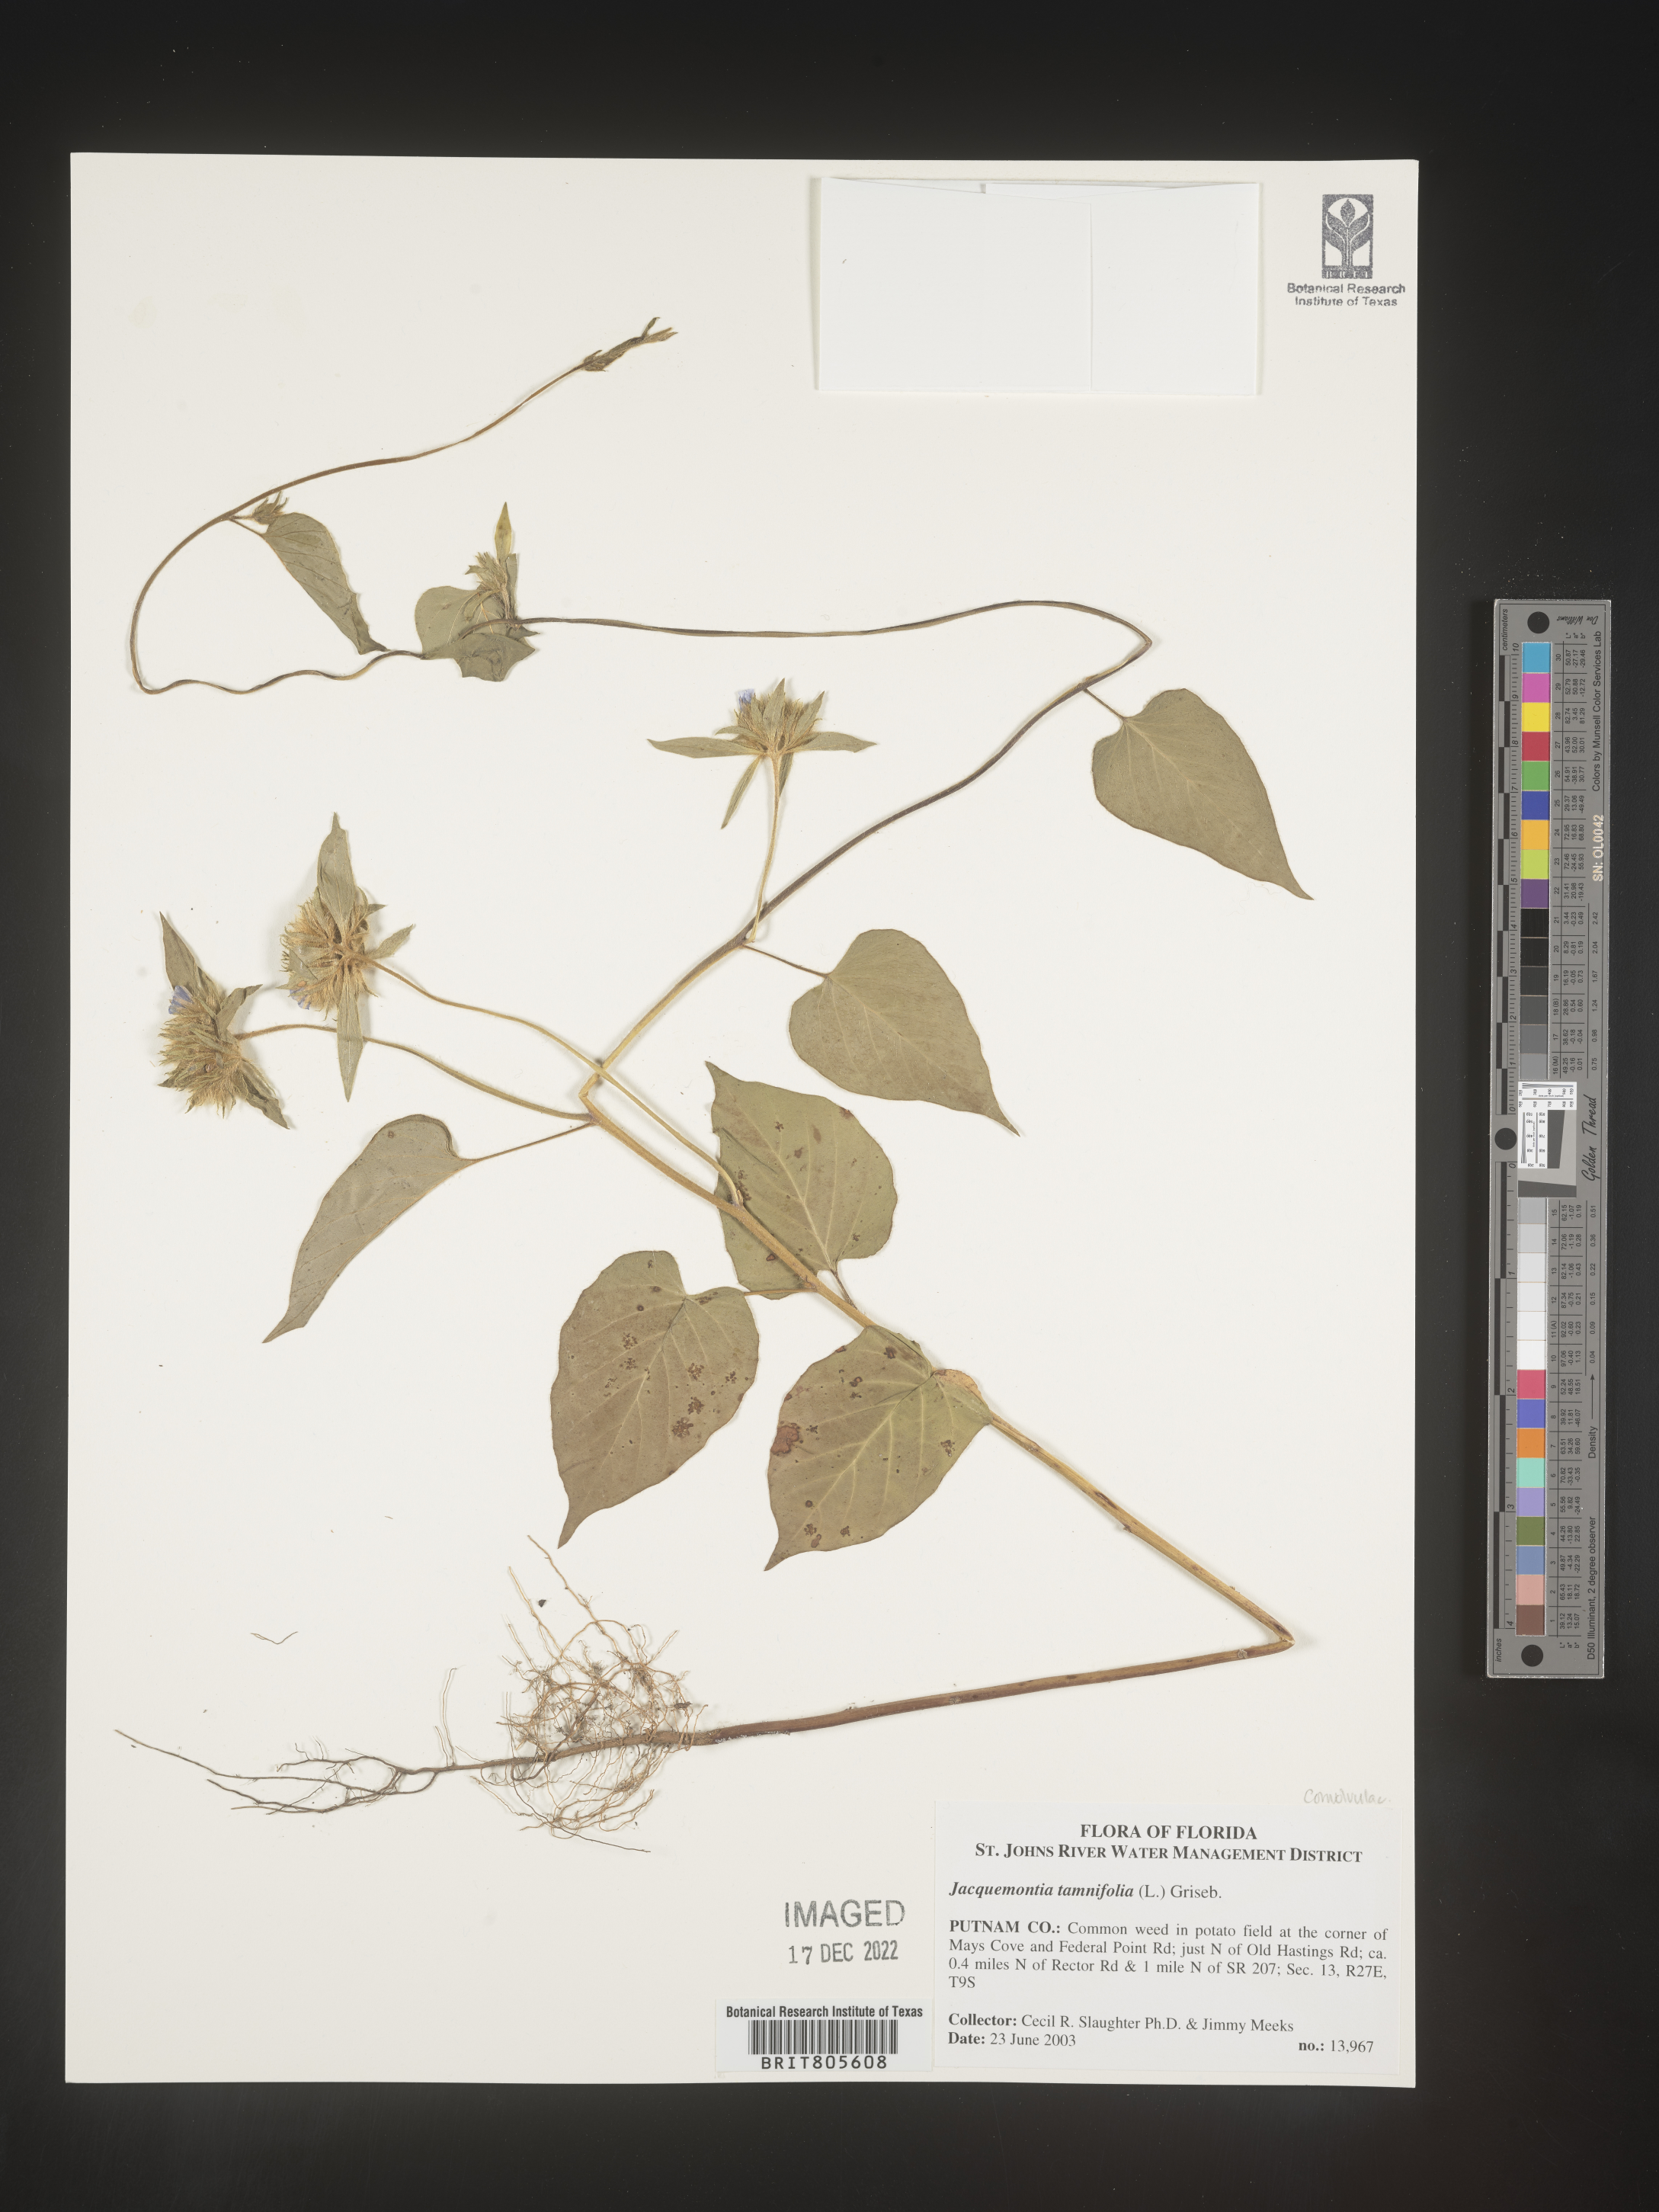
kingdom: Plantae
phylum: Tracheophyta
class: Magnoliopsida
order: Solanales
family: Convolvulaceae
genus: Jacquemontia
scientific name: Jacquemontia tamnifolia
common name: Hairy clustervine
